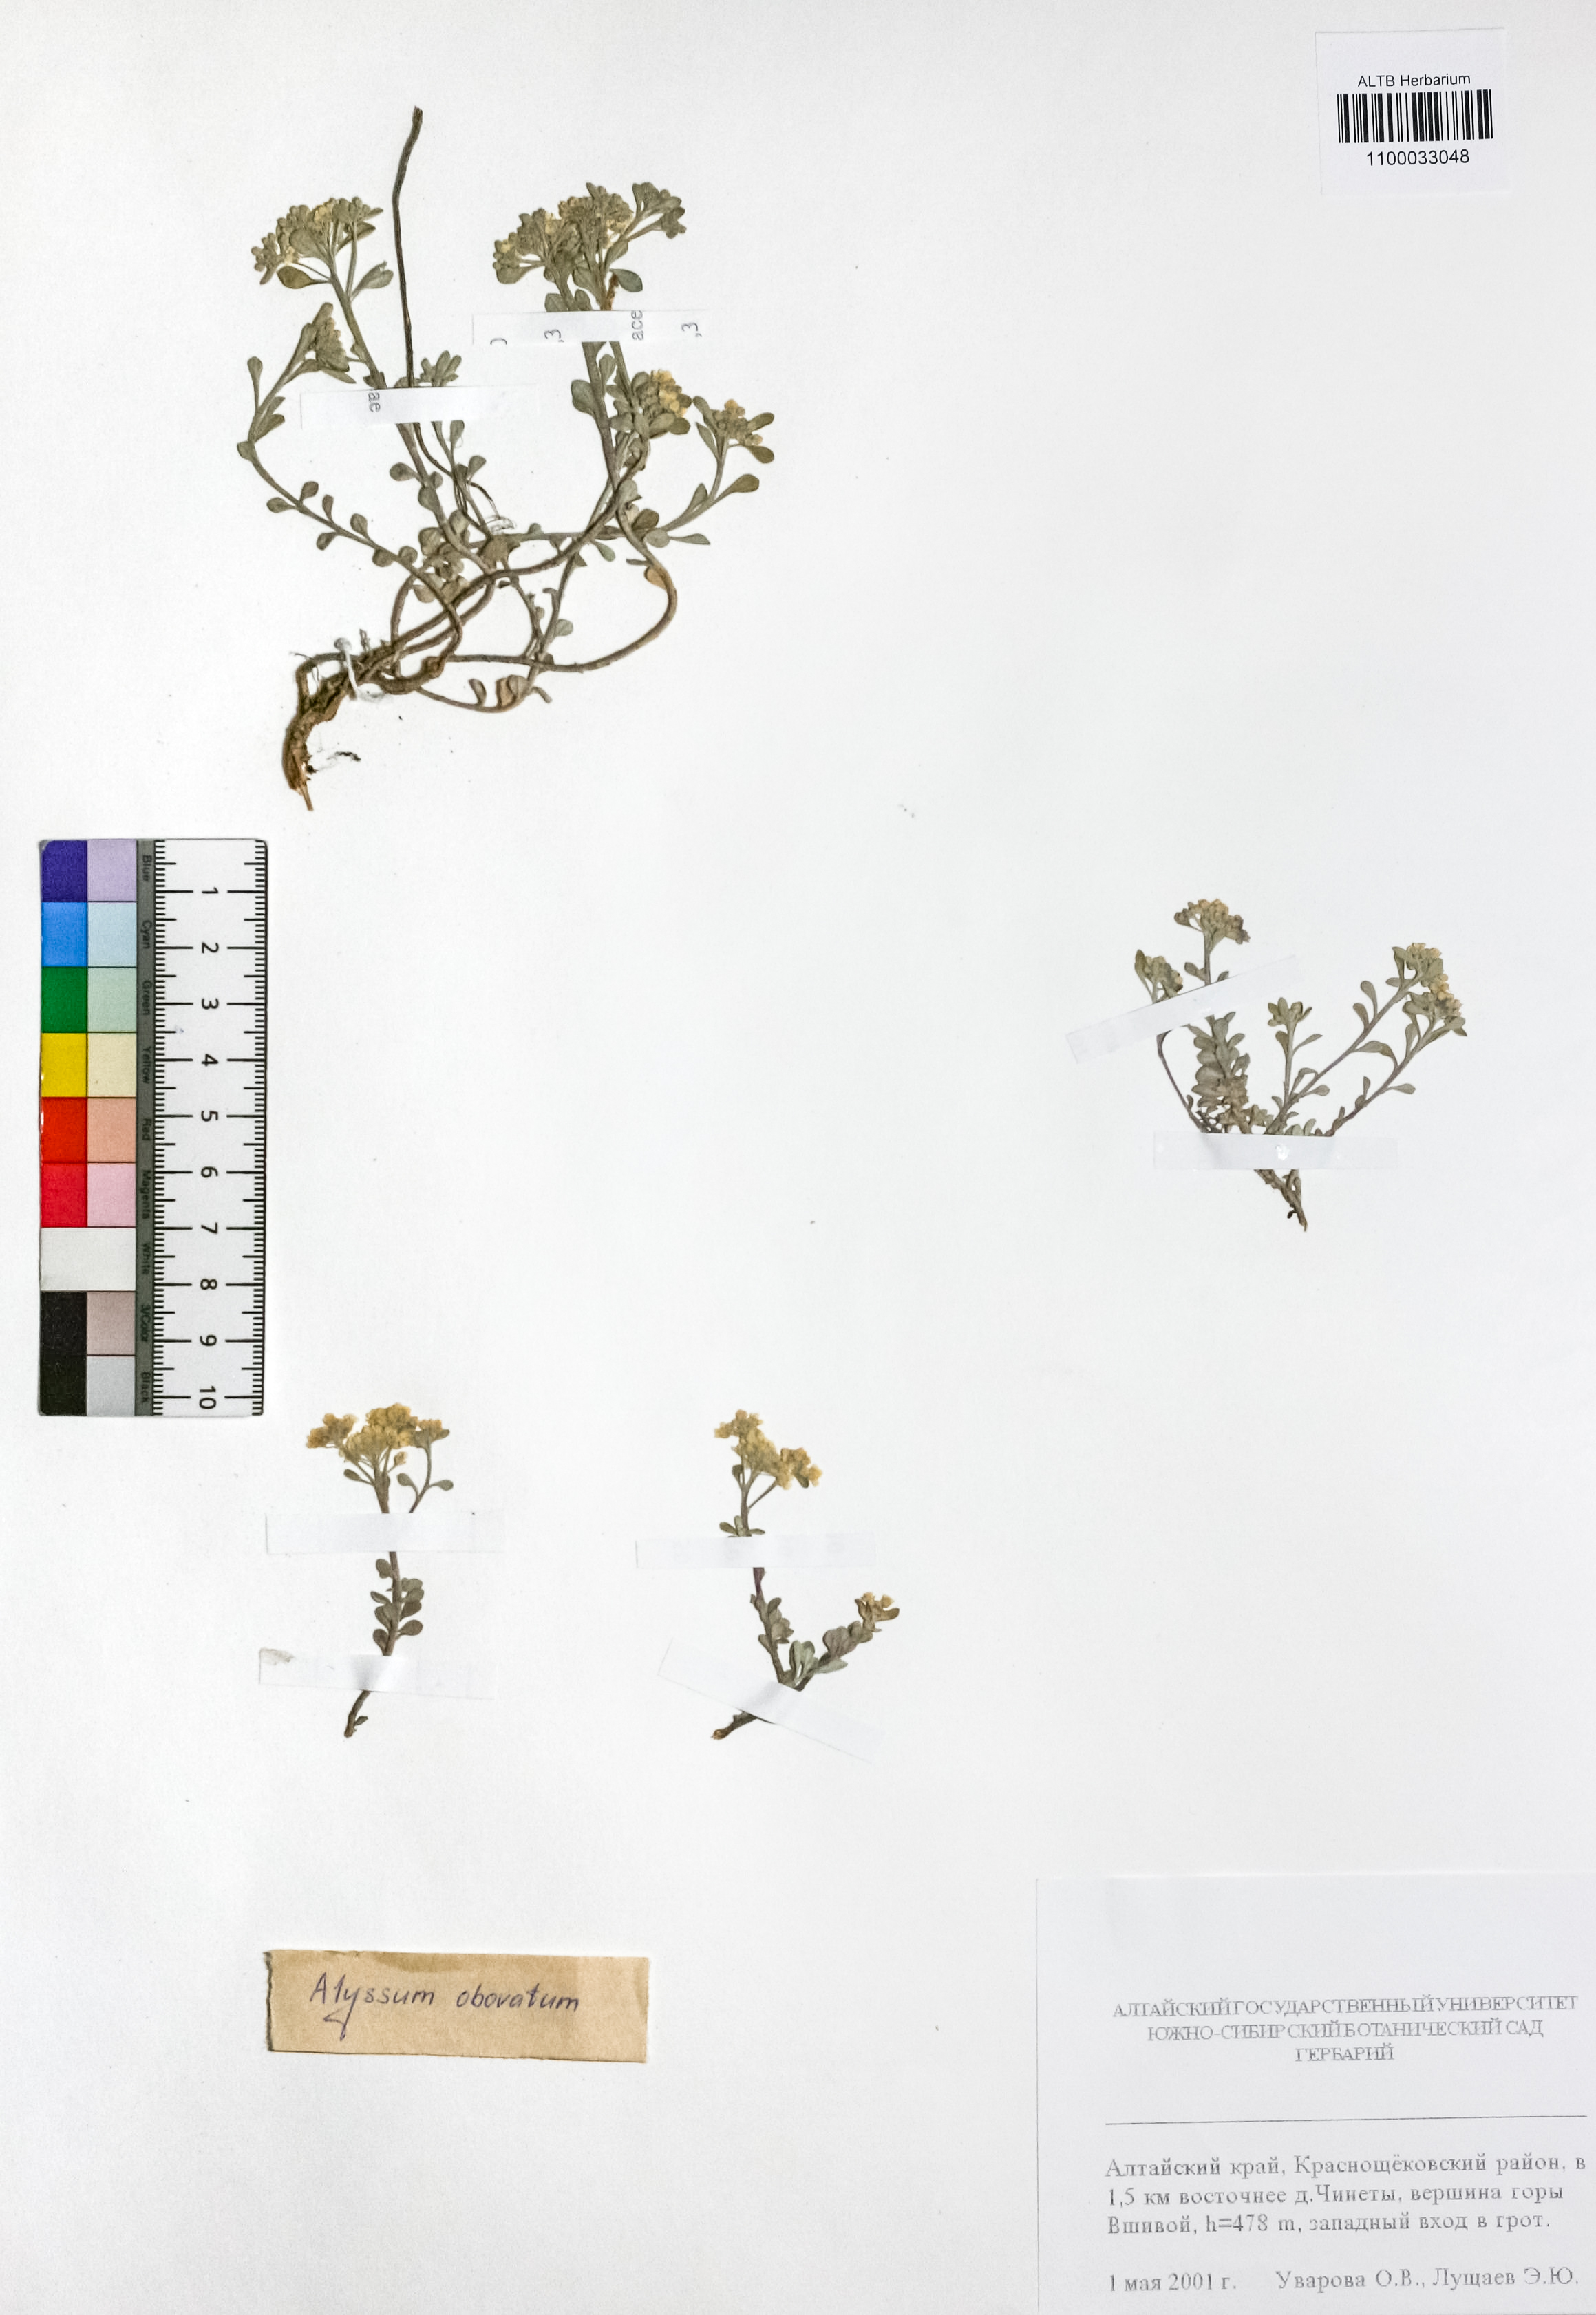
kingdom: Plantae
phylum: Tracheophyta
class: Magnoliopsida
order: Brassicales
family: Brassicaceae
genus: Odontarrhena
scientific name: Odontarrhena obovata
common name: American alyssum
